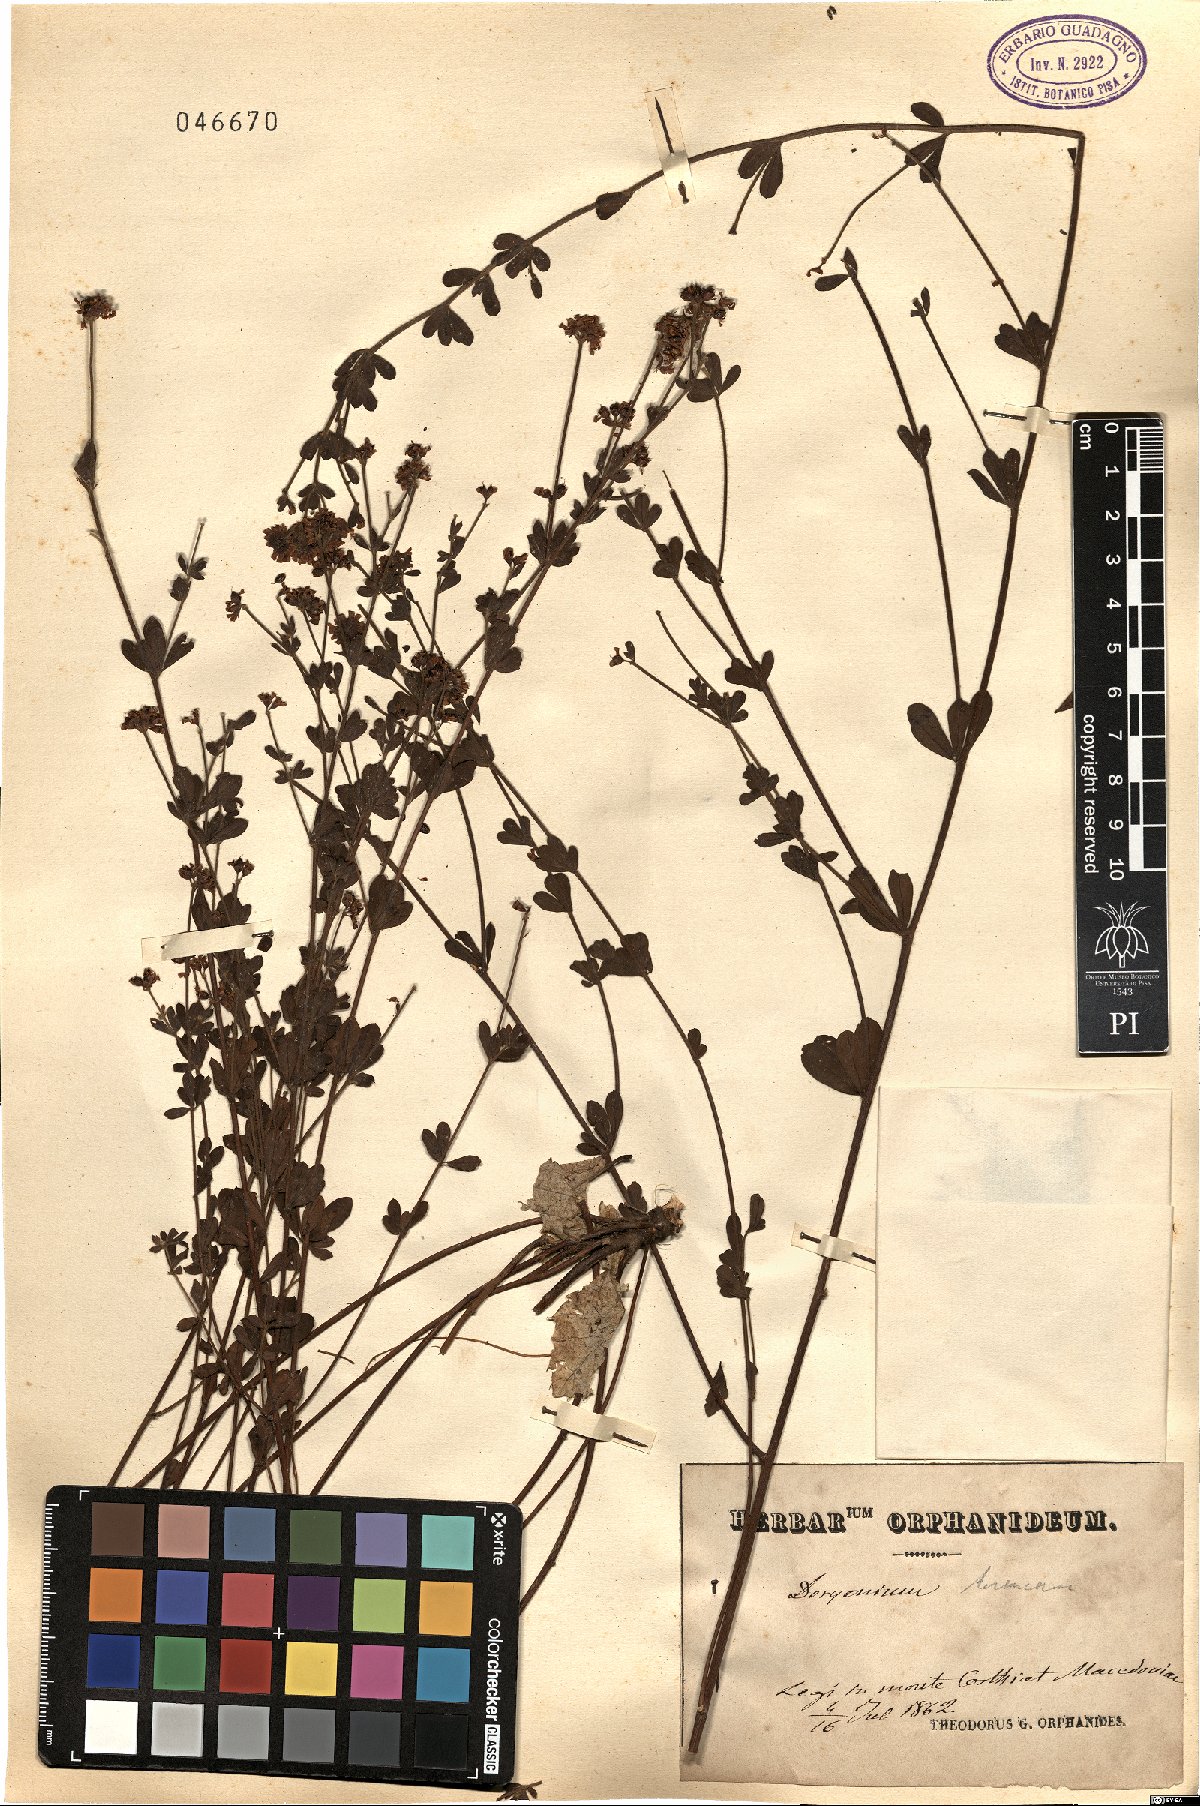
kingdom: Plantae
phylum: Tracheophyta
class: Magnoliopsida
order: Fabales
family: Fabaceae
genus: Lotus
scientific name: Lotus
